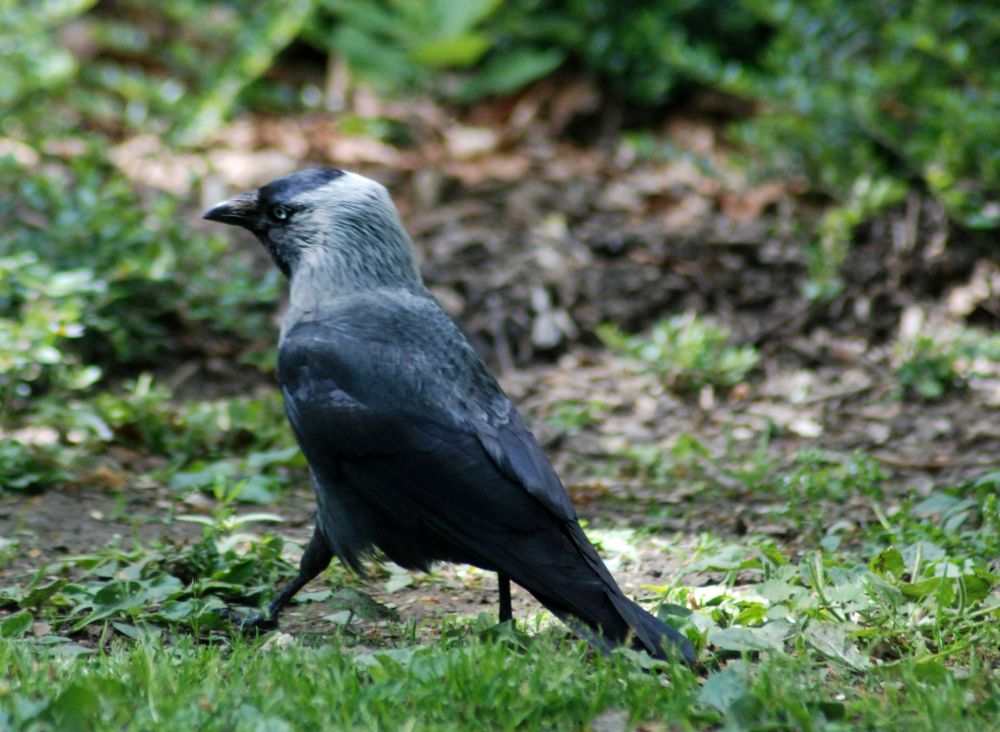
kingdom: Animalia
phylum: Chordata
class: Aves
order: Passeriformes
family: Corvidae
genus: Coloeus
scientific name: Coloeus monedula
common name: Western jackdaw
